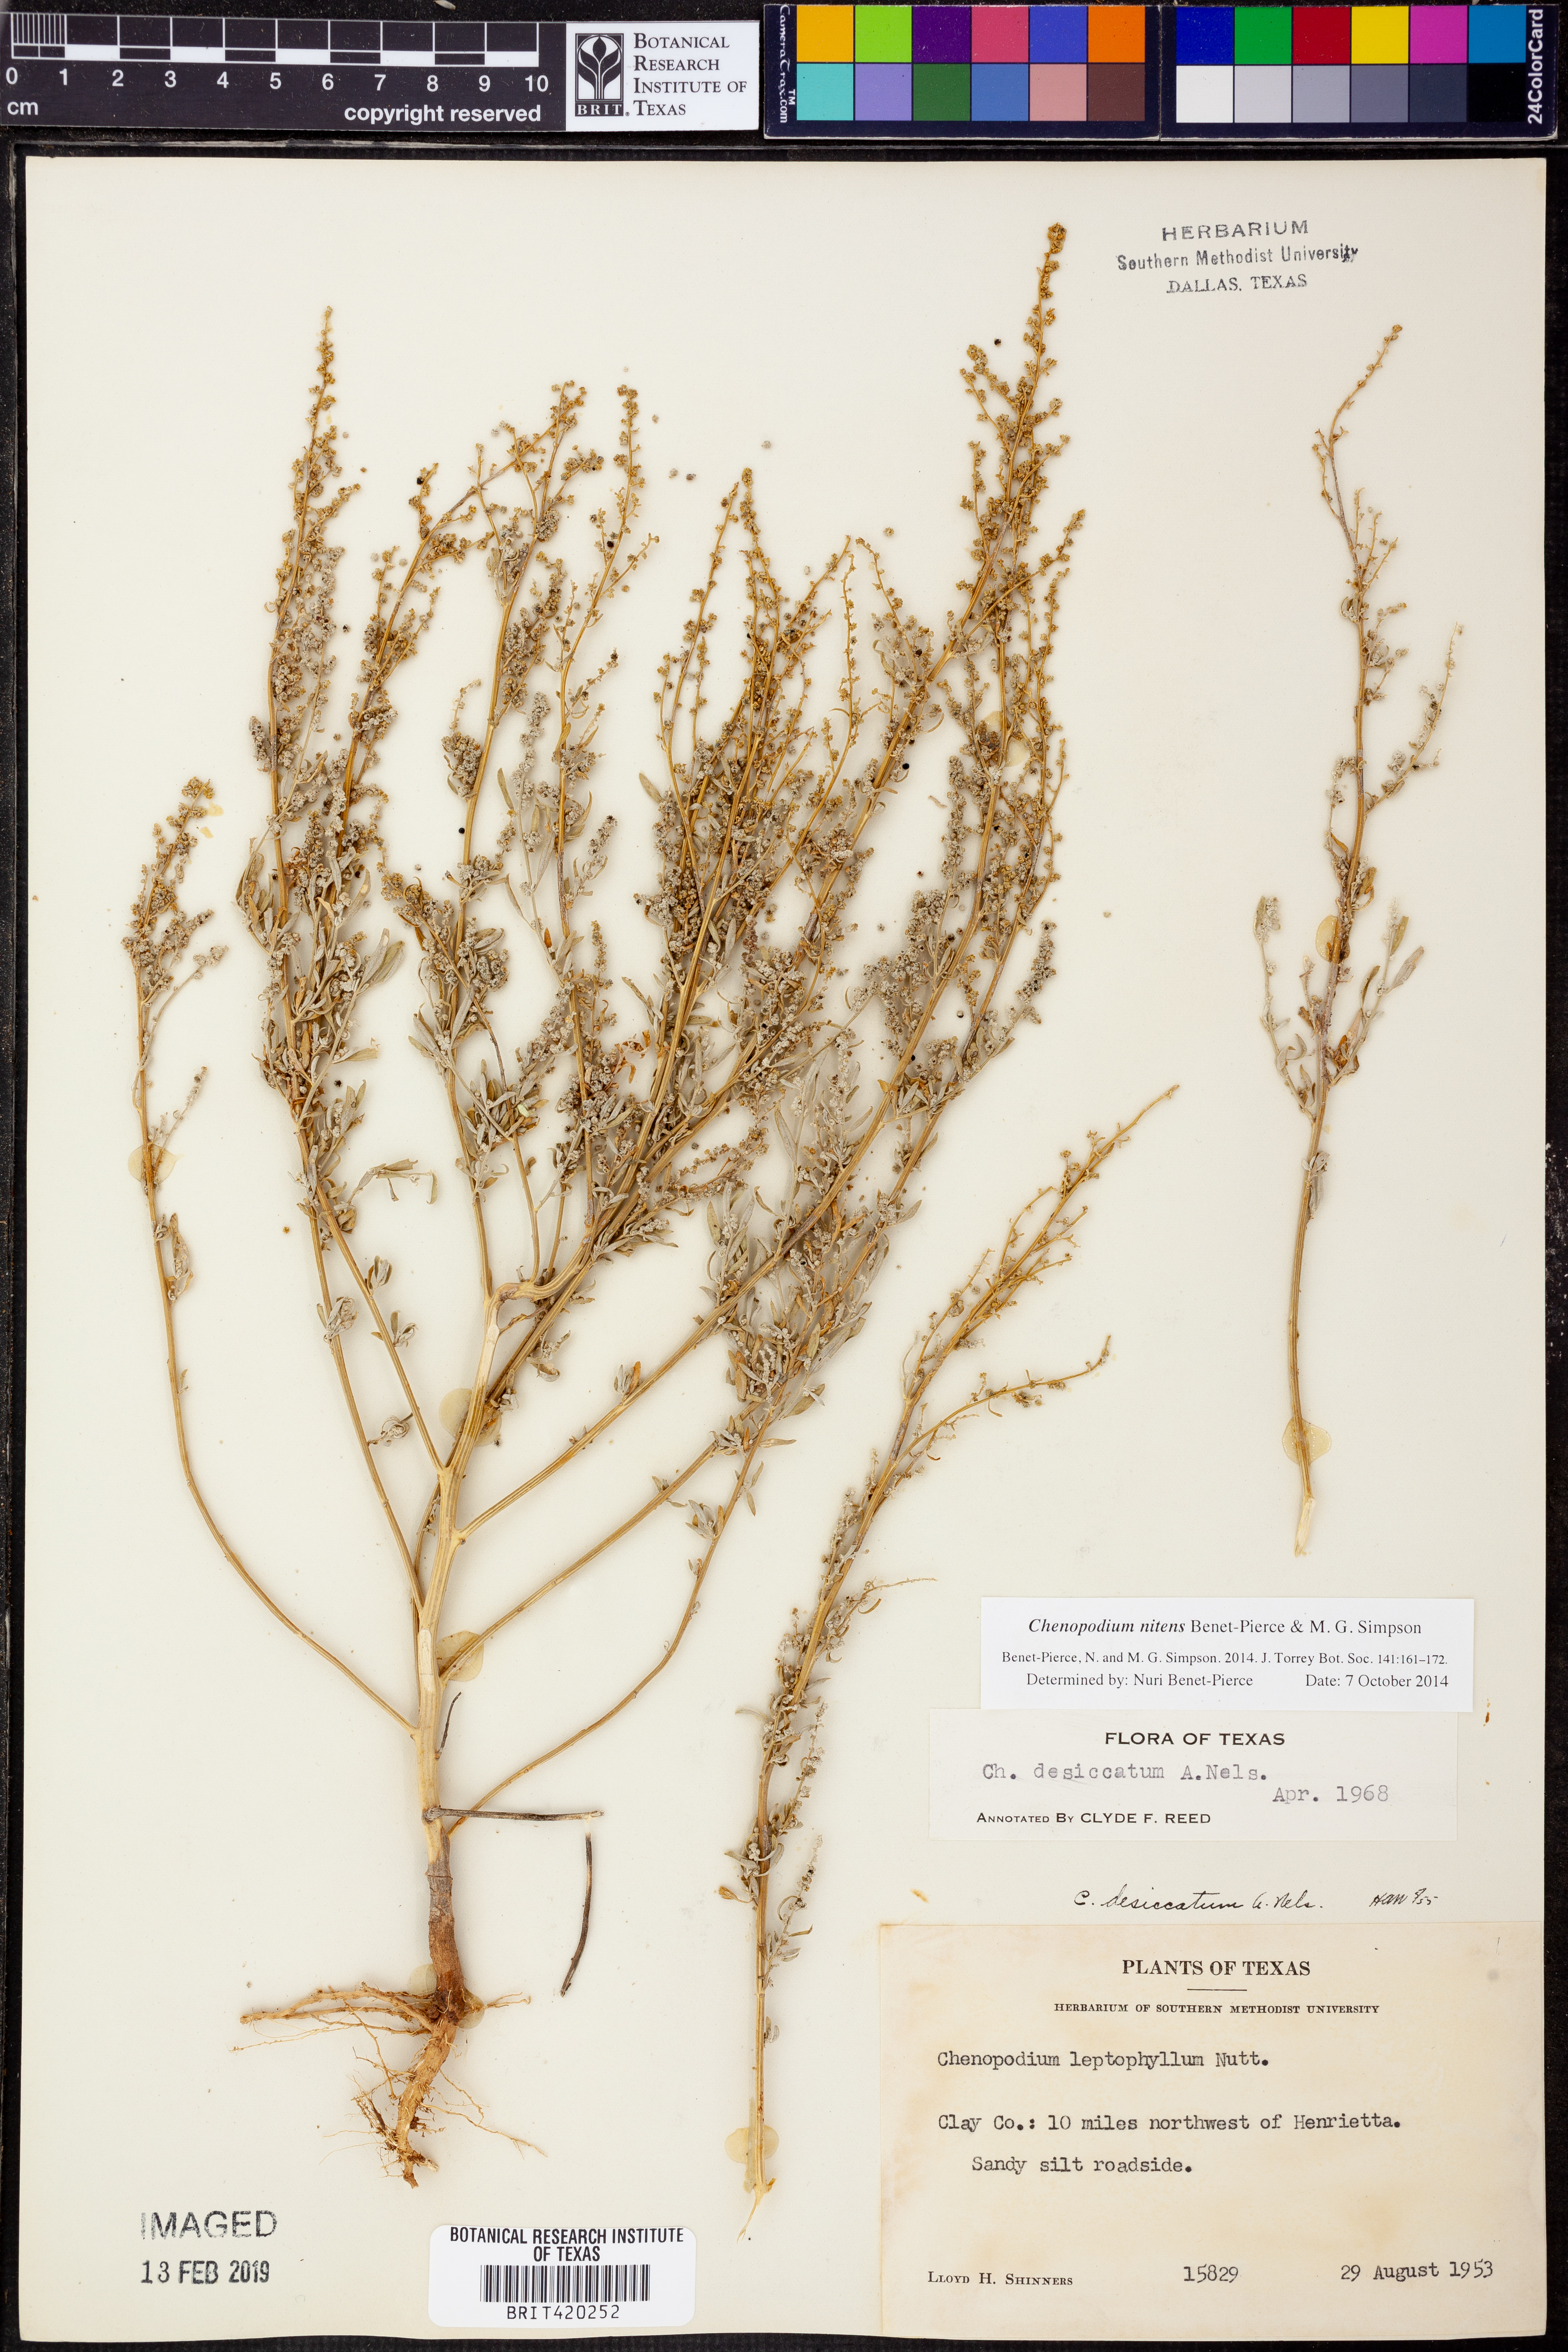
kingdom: Plantae
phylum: Tracheophyta
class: Magnoliopsida
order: Caryophyllales
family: Amaranthaceae
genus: Chenopodium
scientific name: Chenopodium nitens
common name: Shiny-seed goosefoot
